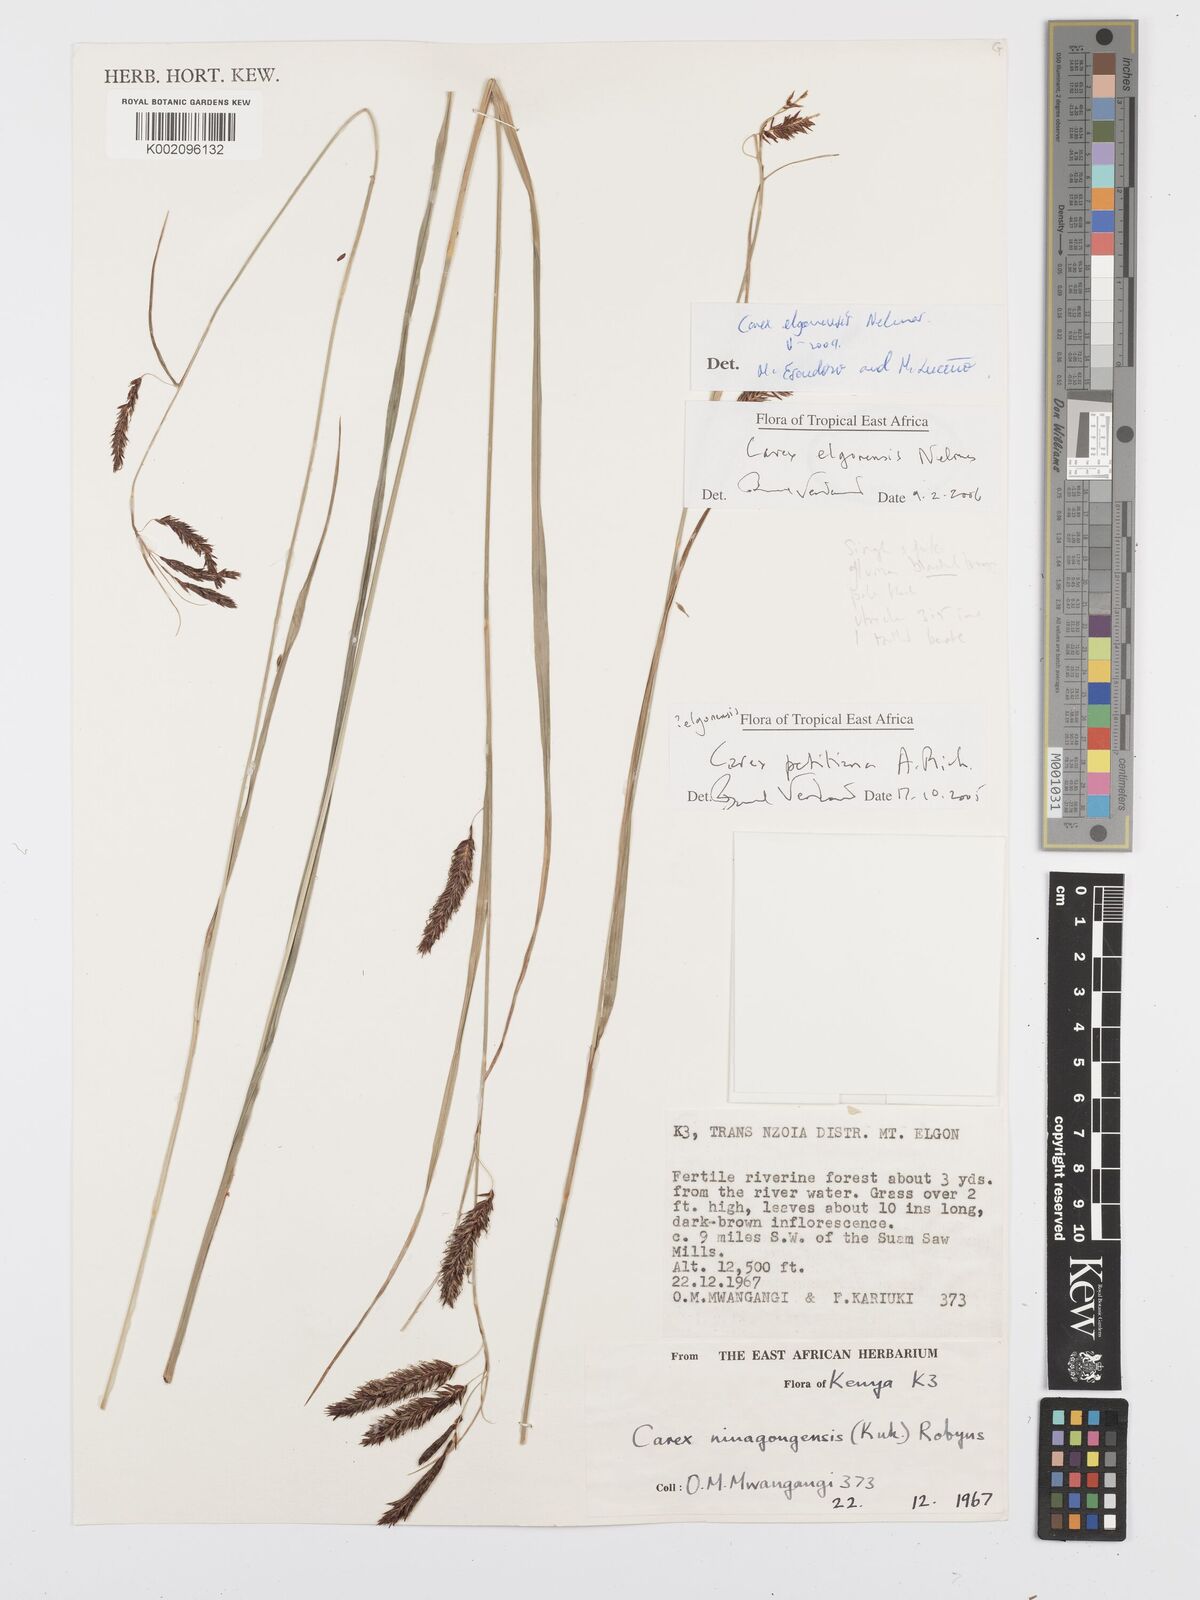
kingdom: Plantae
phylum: Tracheophyta
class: Liliopsida
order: Poales
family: Cyperaceae
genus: Carex
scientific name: Carex elgonensis
